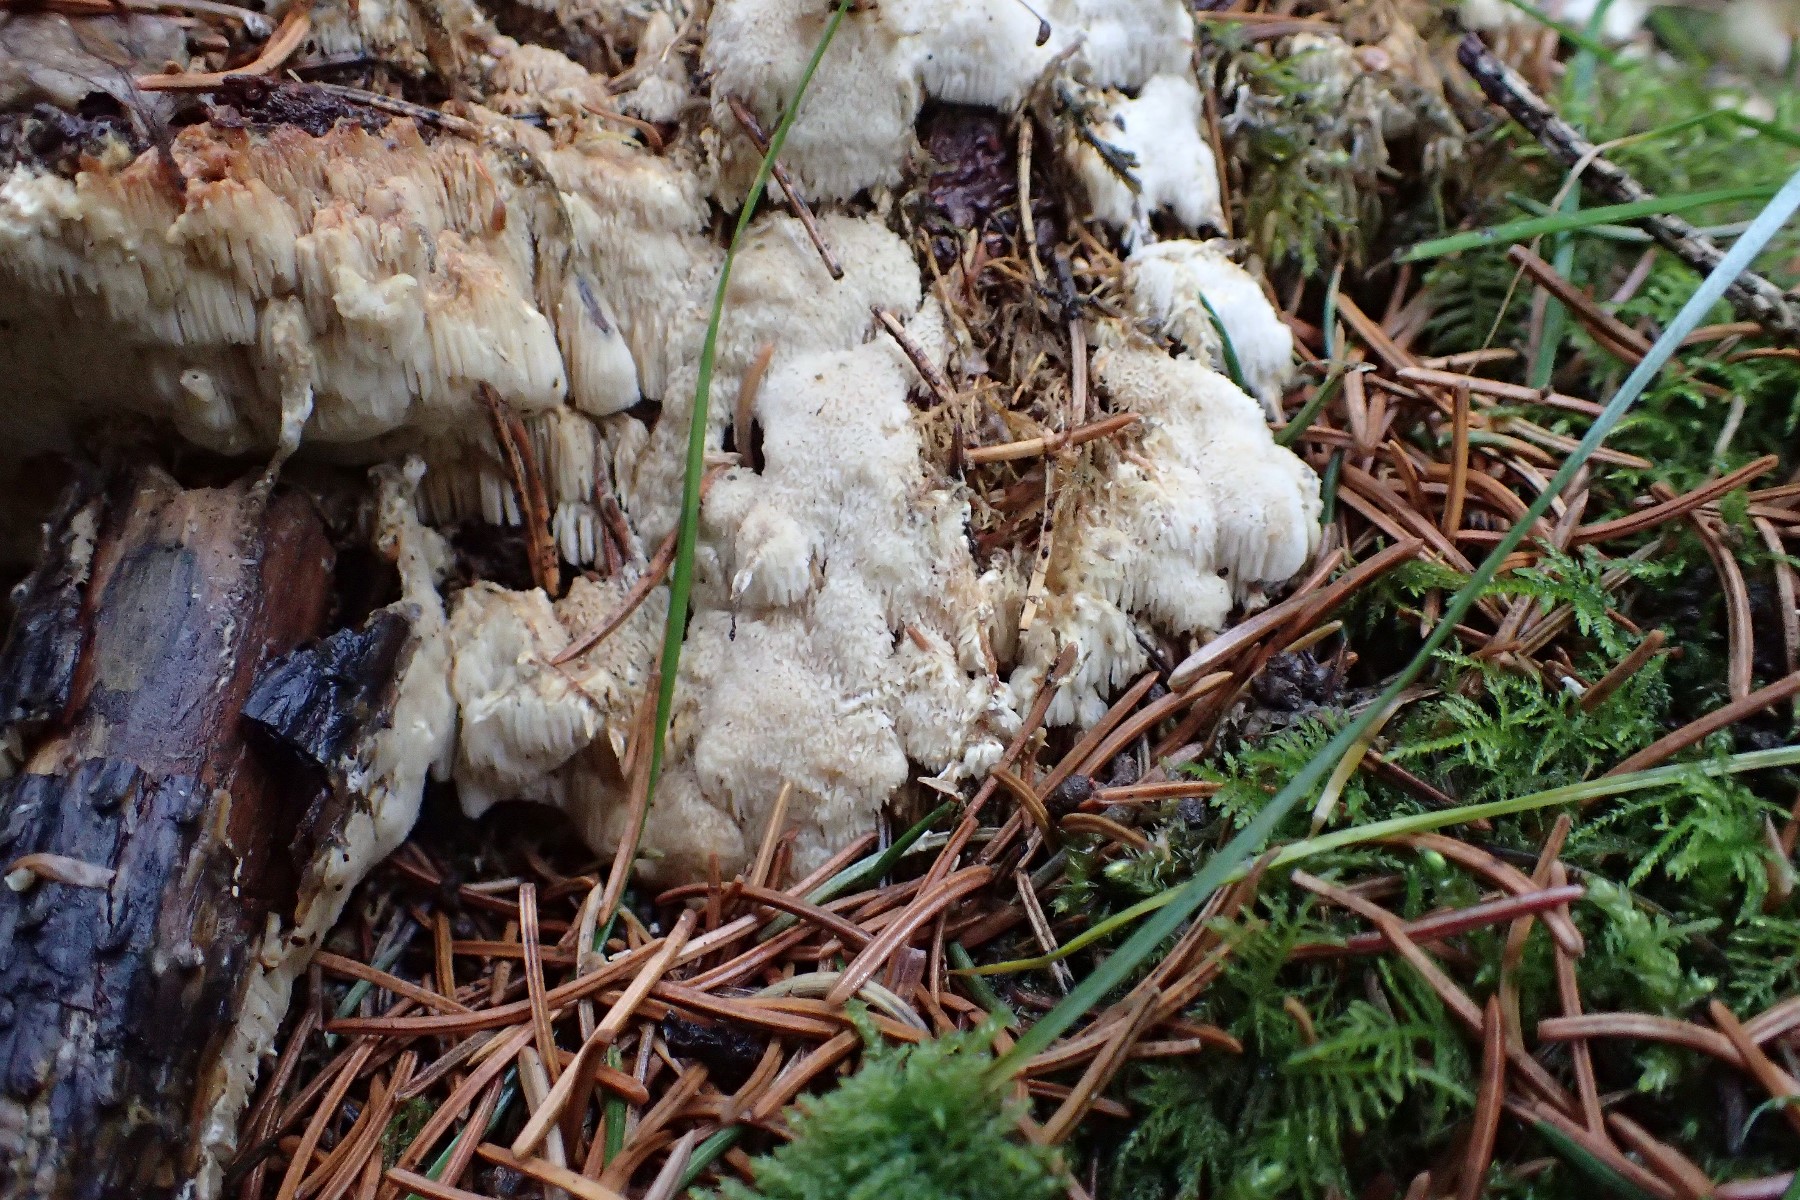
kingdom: Fungi
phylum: Basidiomycota
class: Agaricomycetes
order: Polyporales
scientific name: Polyporales
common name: poresvampordenen
